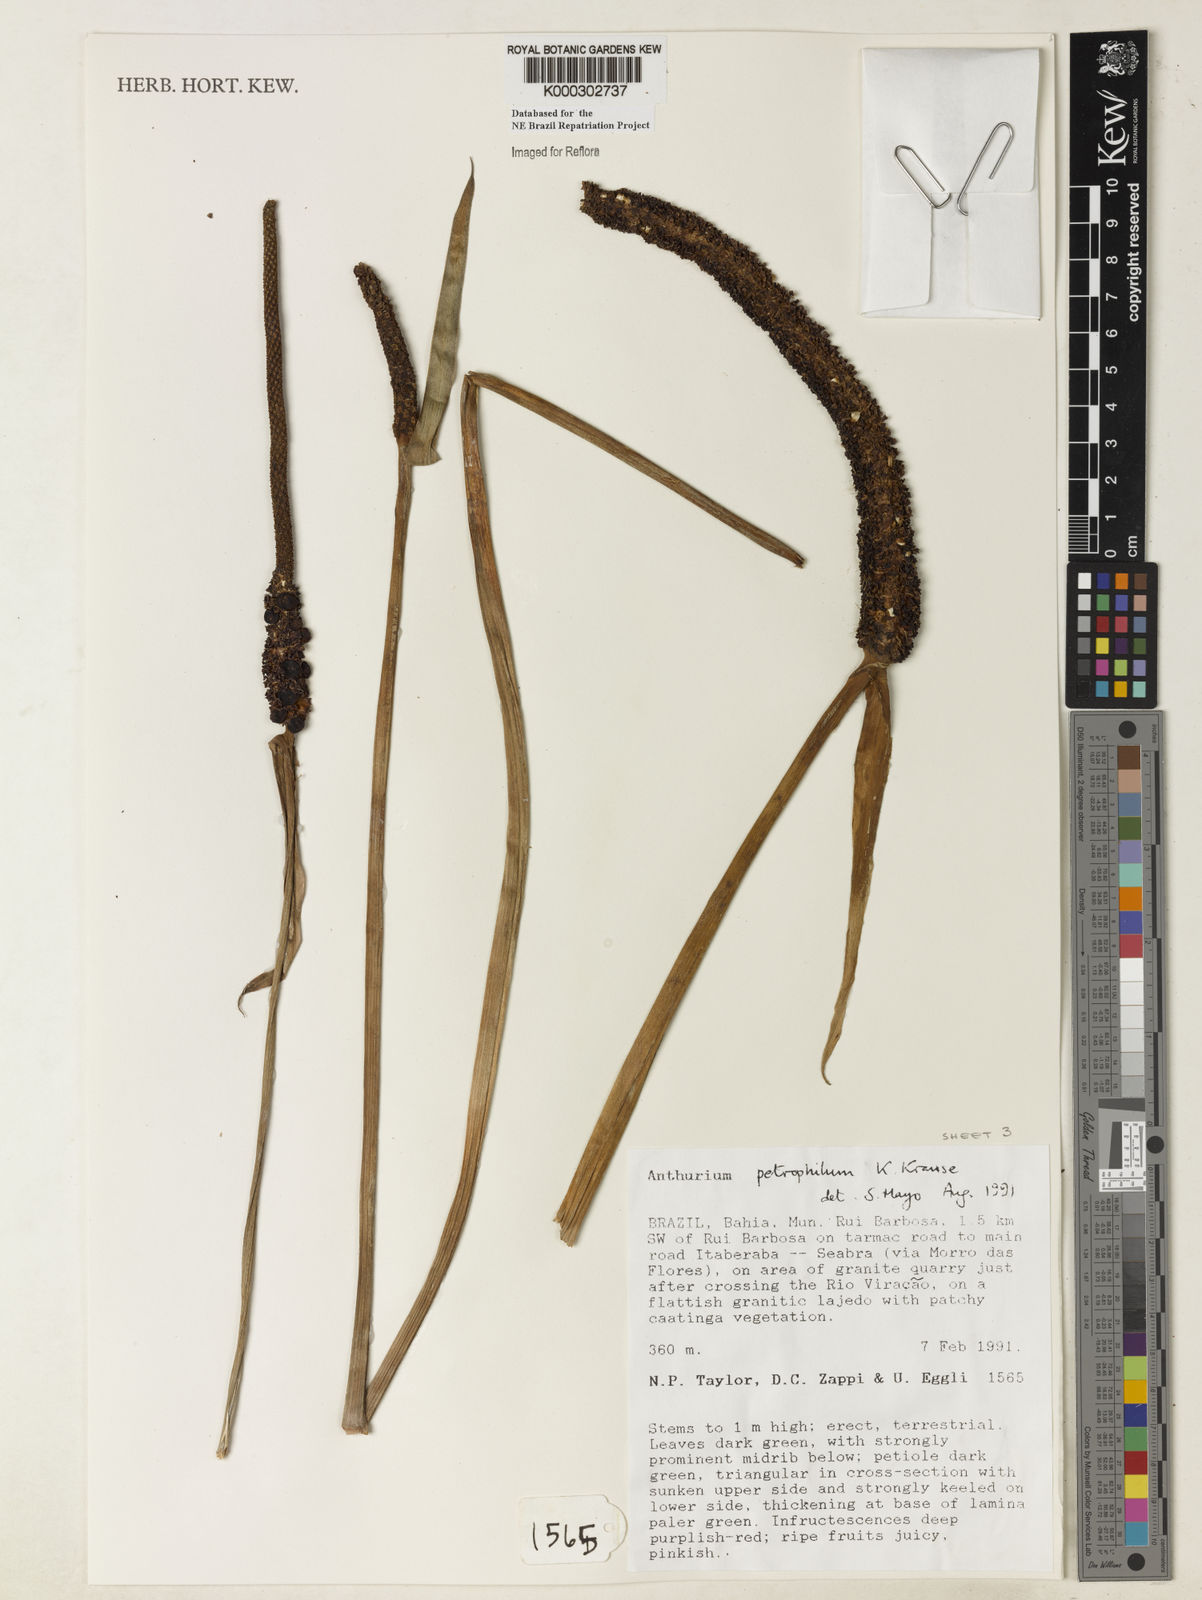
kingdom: Plantae
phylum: Tracheophyta
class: Liliopsida
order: Alismatales
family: Araceae
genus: Anthurium
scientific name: Anthurium petrophilum
